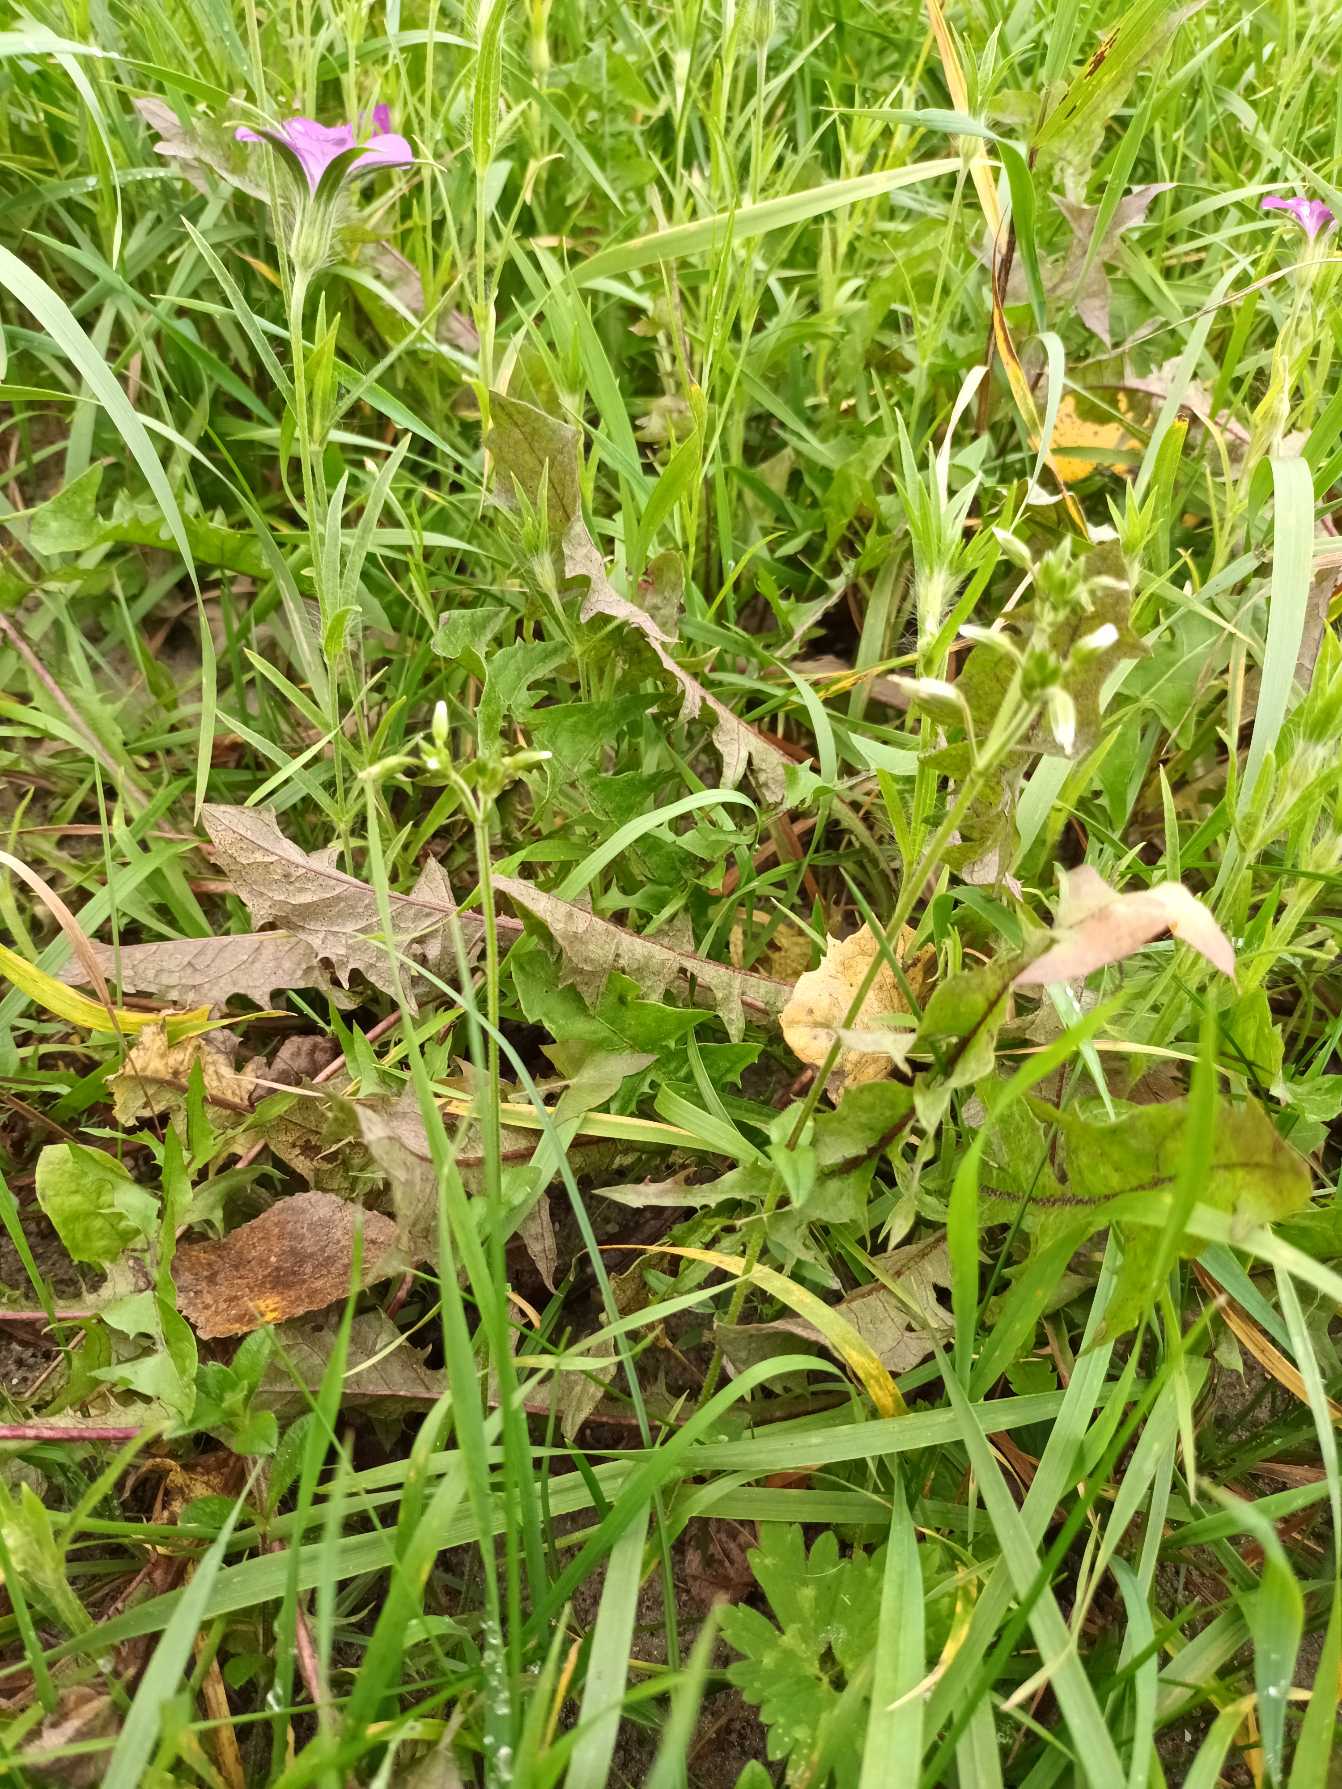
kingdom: Plantae
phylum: Tracheophyta
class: Magnoliopsida
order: Caryophyllales
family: Caryophyllaceae
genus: Cerastium
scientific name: Cerastium fontanum
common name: Almindelig hønsetarm
